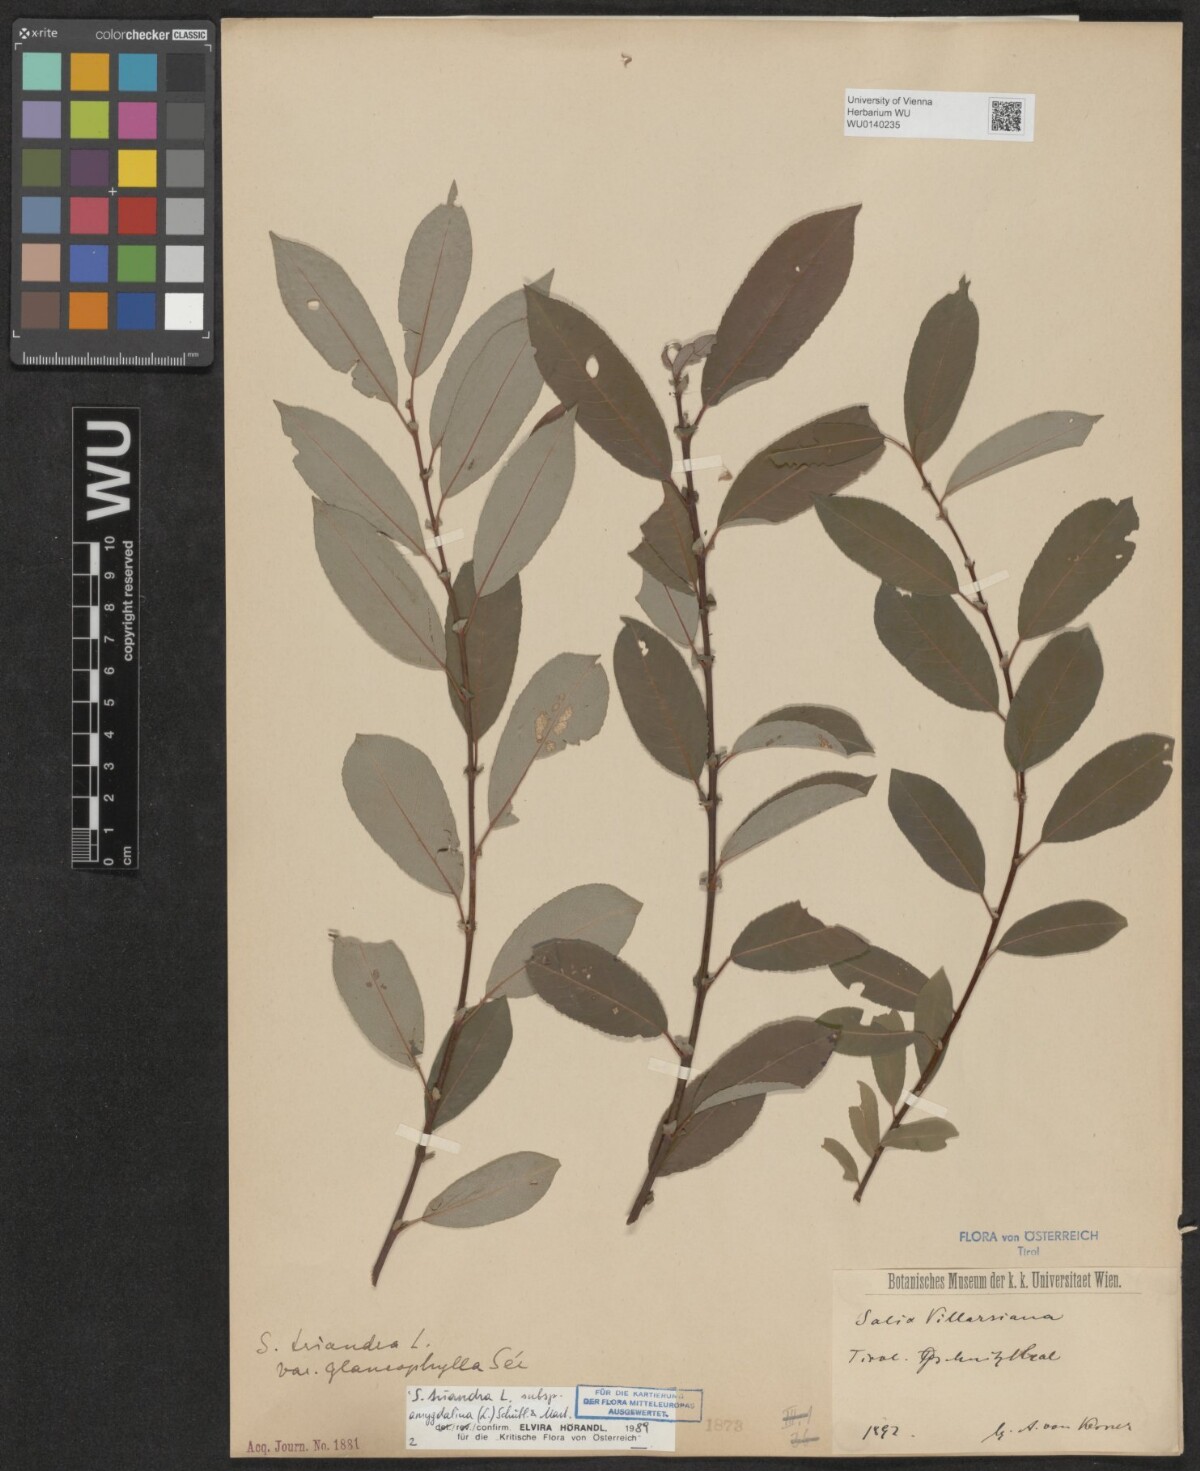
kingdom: Plantae
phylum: Tracheophyta
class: Magnoliopsida
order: Malpighiales
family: Salicaceae
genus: Salix
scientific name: Salix triandra
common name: Almond willow
